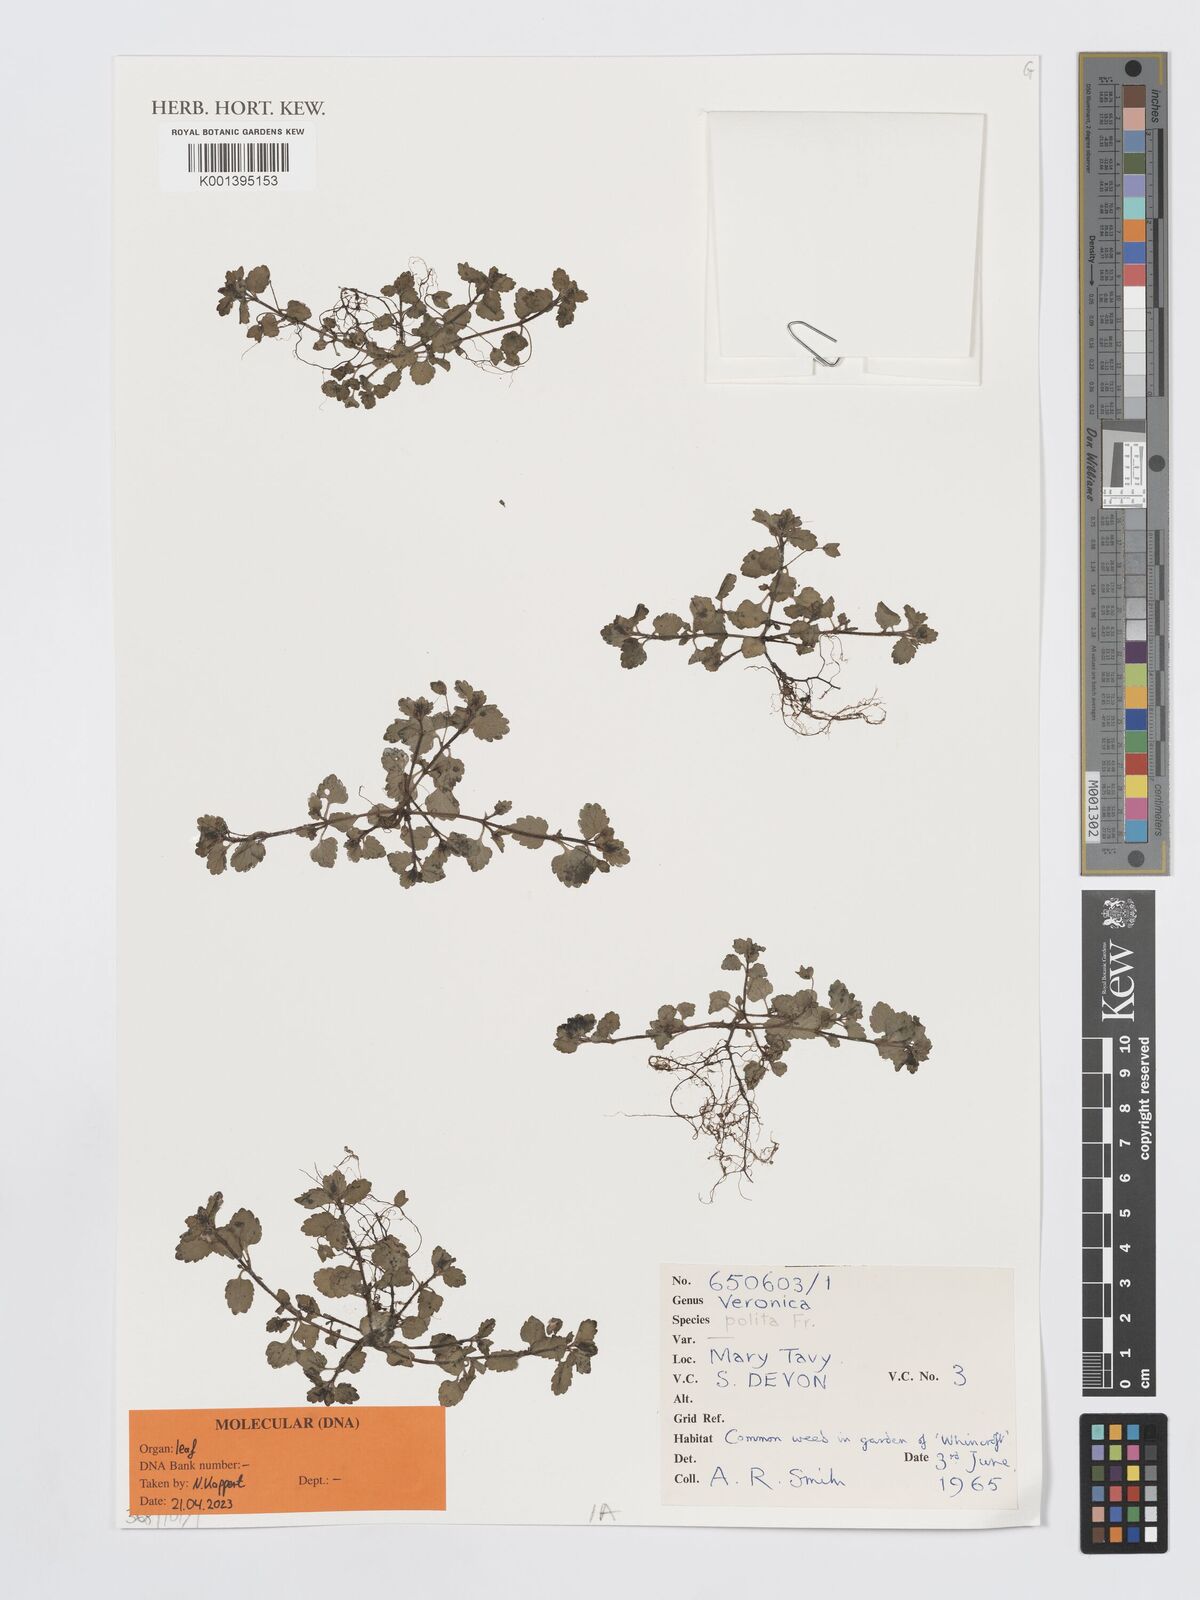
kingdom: Plantae
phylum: Tracheophyta
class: Magnoliopsida
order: Lamiales
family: Plantaginaceae
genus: Veronica
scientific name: Veronica polita
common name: Grey field-speedwell
